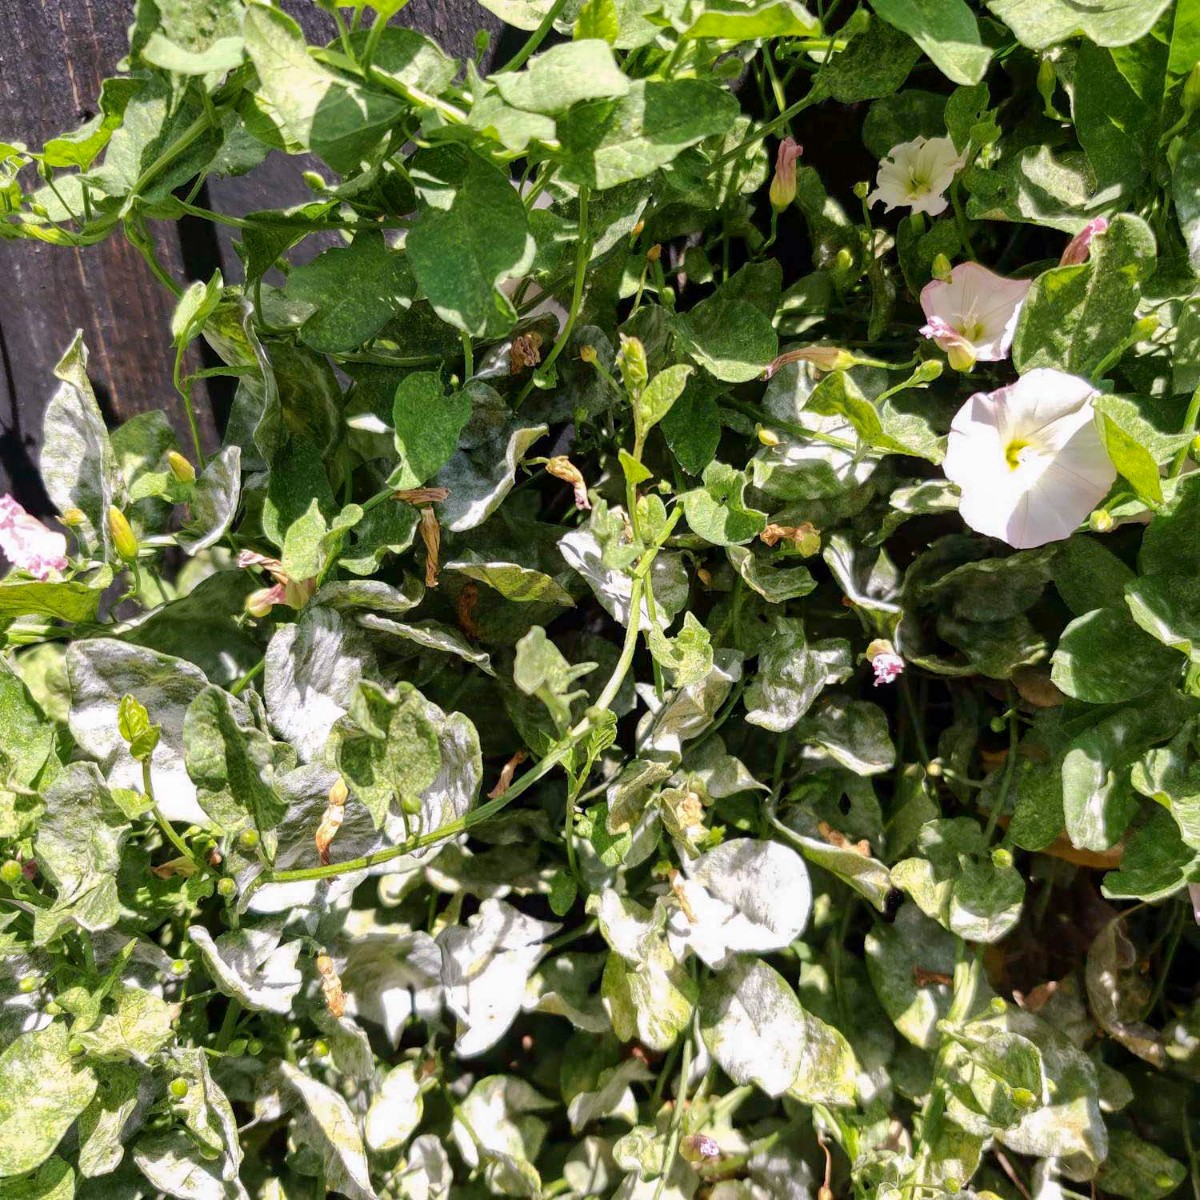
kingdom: Fungi
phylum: Ascomycota
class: Leotiomycetes
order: Helotiales
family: Erysiphaceae
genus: Erysiphe
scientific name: Erysiphe convolvuli
